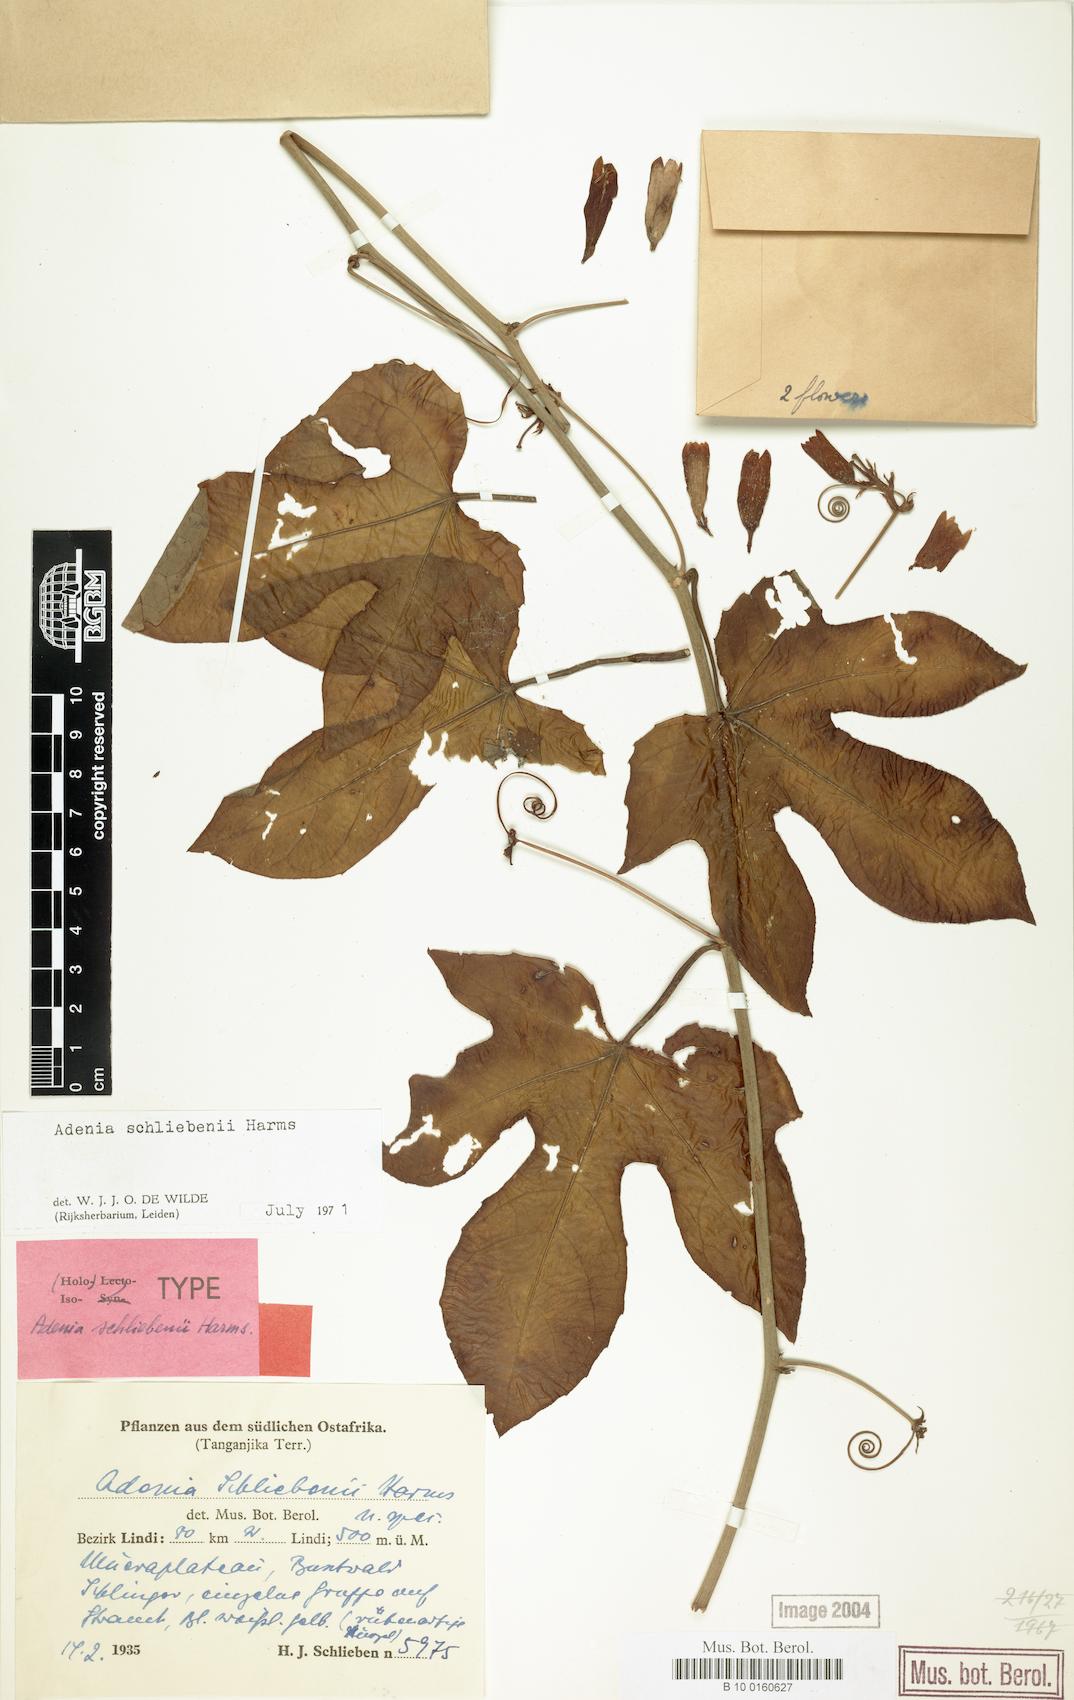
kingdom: Plantae
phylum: Tracheophyta
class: Magnoliopsida
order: Malpighiales
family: Passifloraceae
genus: Adenia
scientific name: Adenia schliebenii
